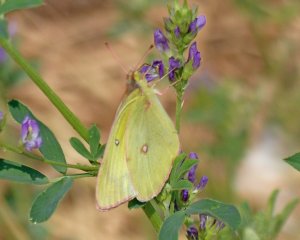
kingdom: Animalia
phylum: Arthropoda
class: Insecta
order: Lepidoptera
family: Pieridae
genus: Colias
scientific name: Colias interior
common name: Pink-edged Sulphur
